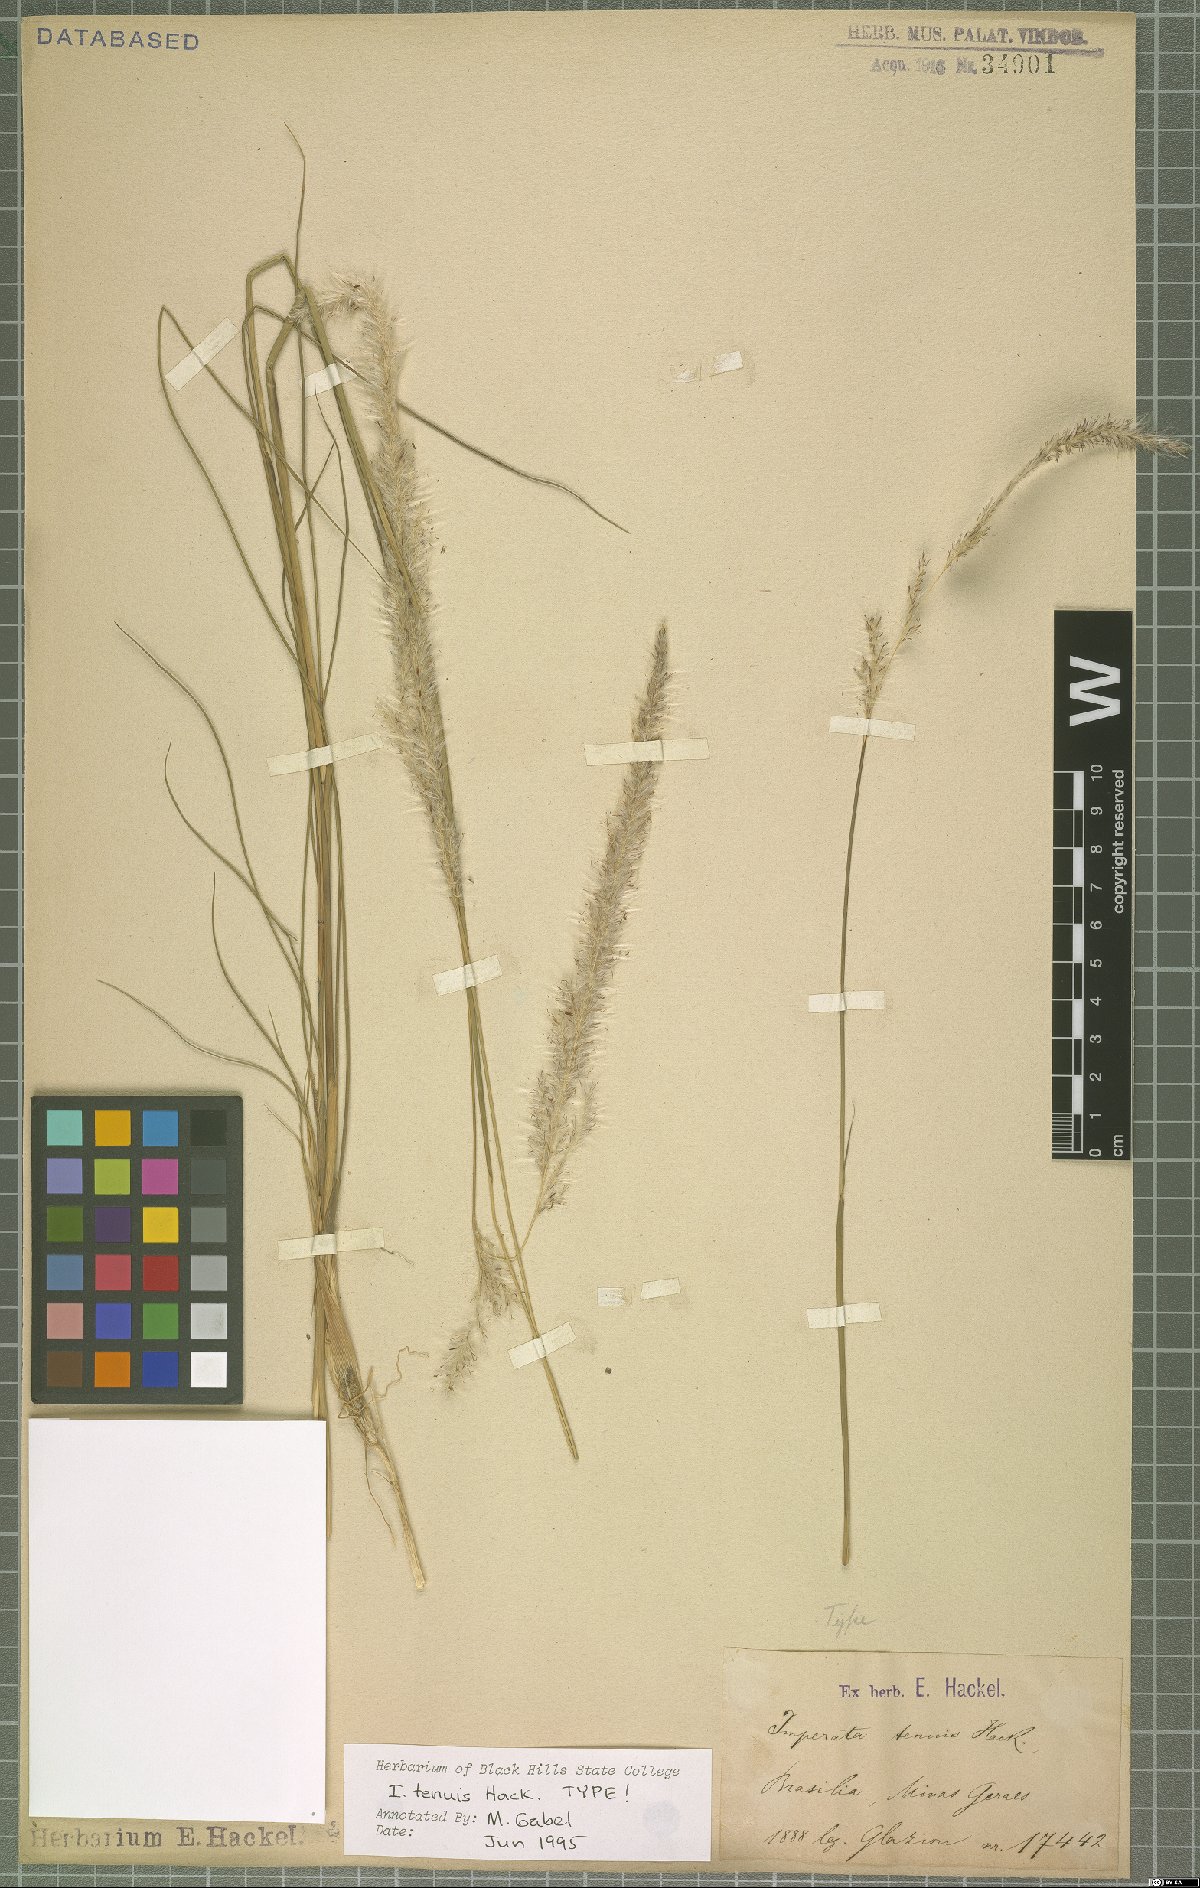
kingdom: Plantae
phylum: Tracheophyta
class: Liliopsida
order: Poales
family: Poaceae
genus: Imperata
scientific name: Imperata tenuis
